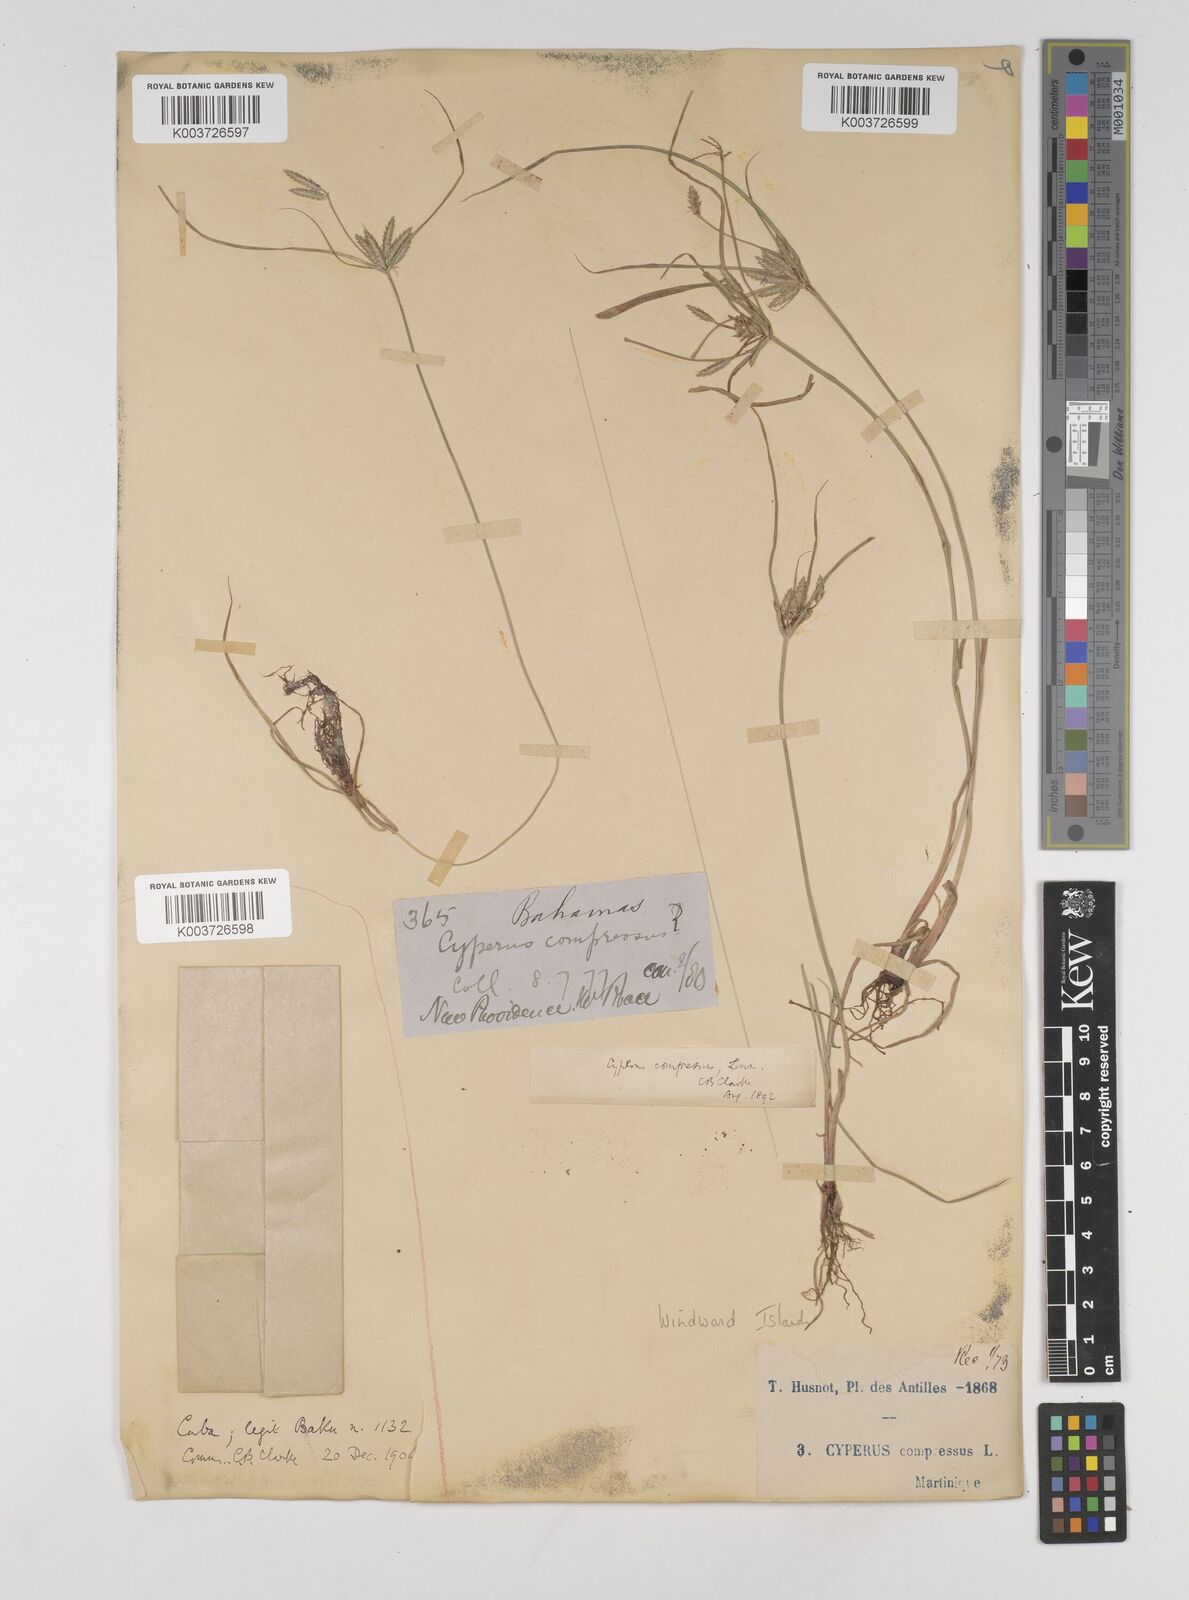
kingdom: Plantae
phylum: Tracheophyta
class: Liliopsida
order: Poales
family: Cyperaceae
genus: Cyperus
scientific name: Cyperus compressus
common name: Poorland flatsedge
